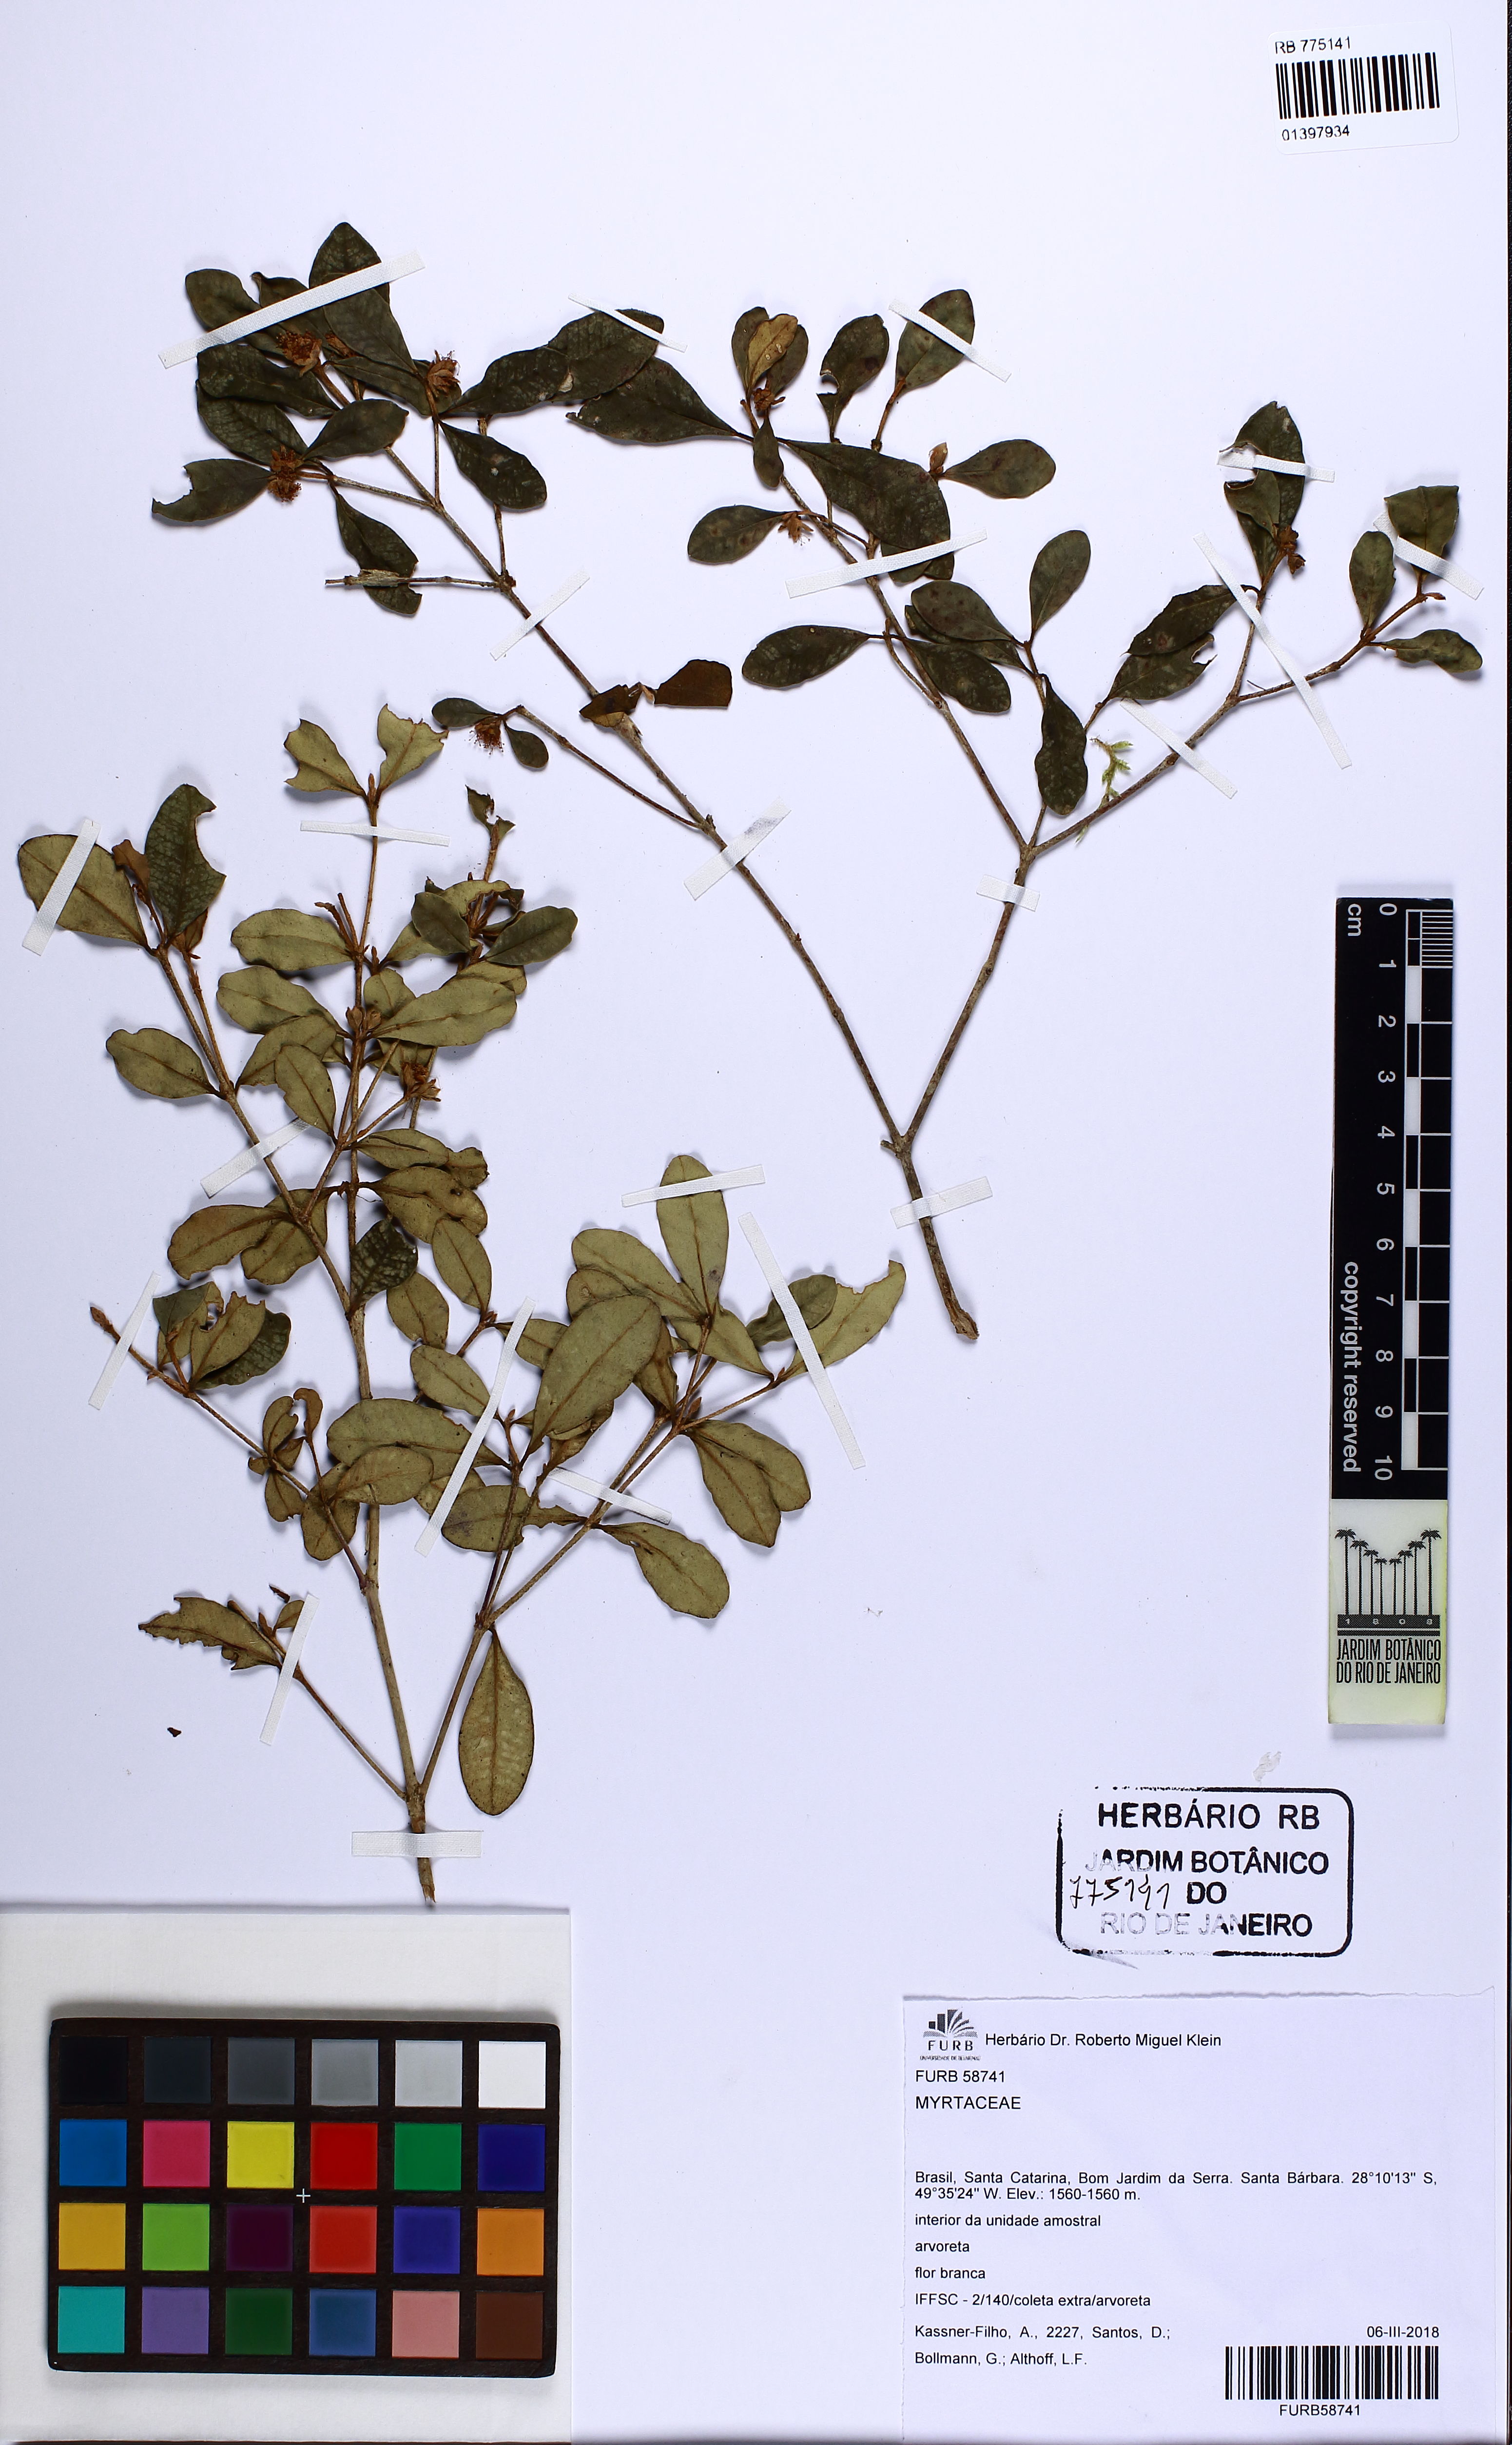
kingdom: Plantae
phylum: Tracheophyta
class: Magnoliopsida
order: Myrtales
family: Myrtaceae
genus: Myrceugenia
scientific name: Myrceugenia oxysepala
